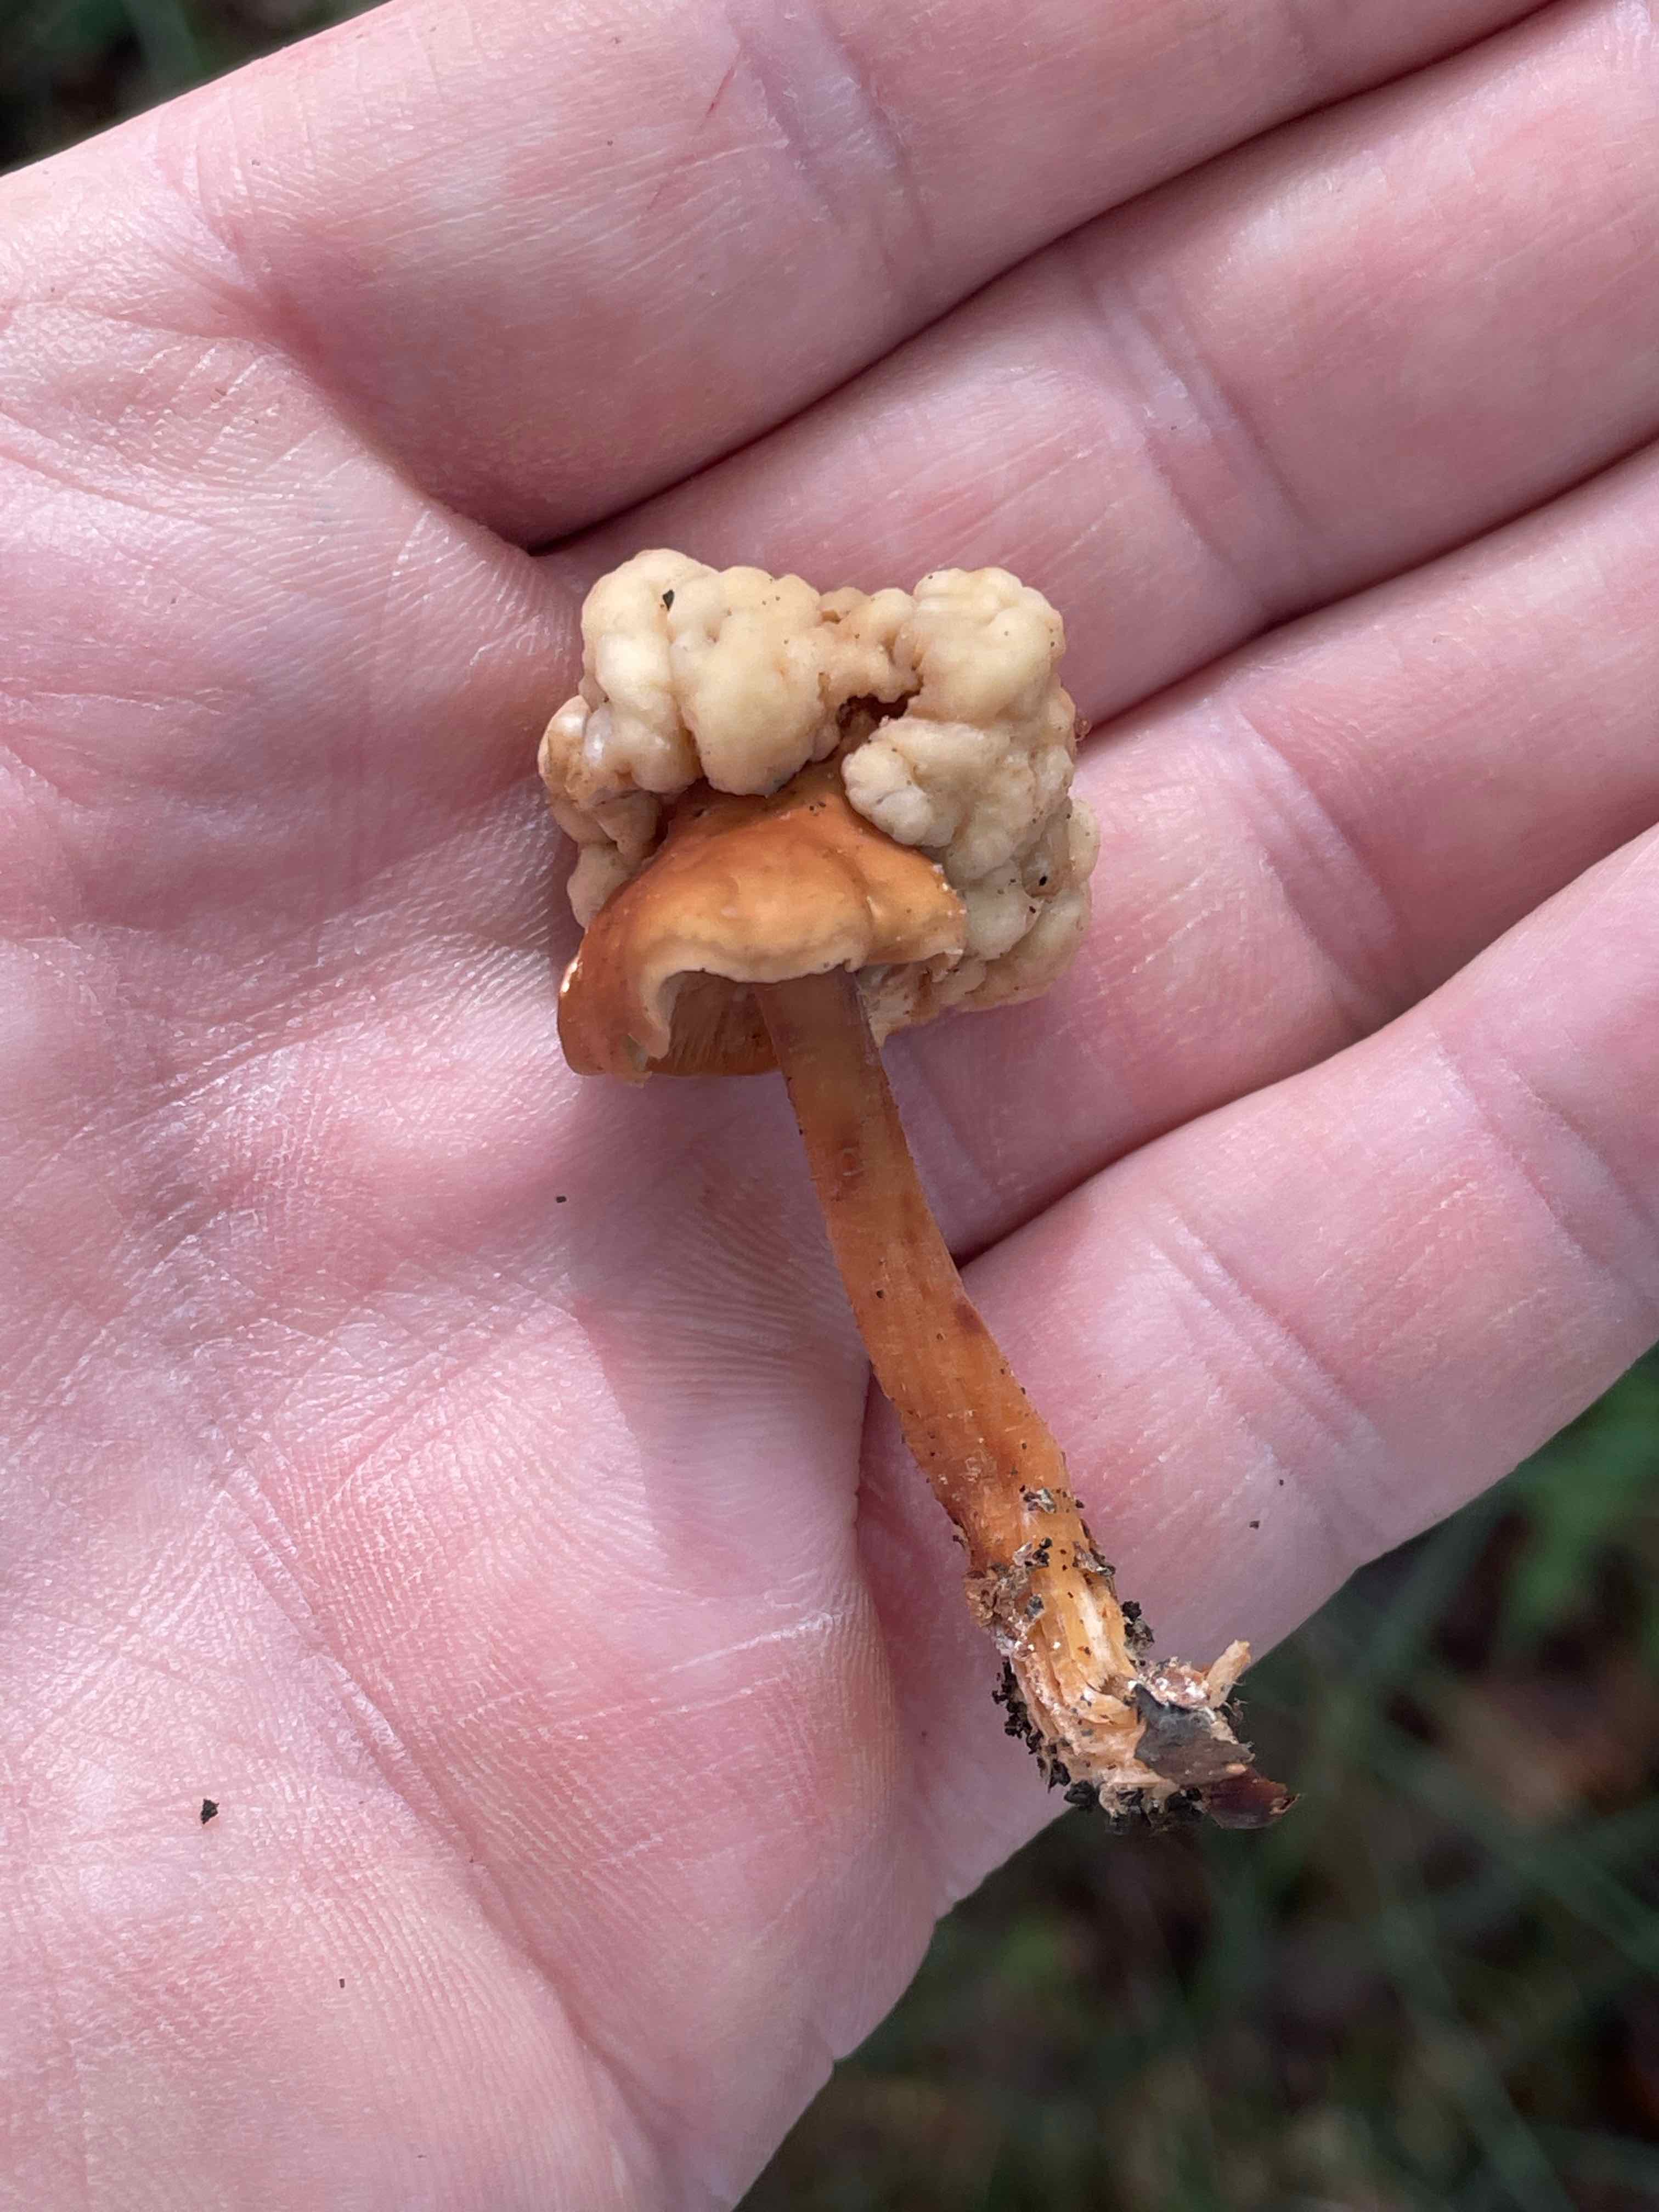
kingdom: Fungi
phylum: Basidiomycota
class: Tremellomycetes
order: Filobasidiales
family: Filobasidiaceae
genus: Syzygospora
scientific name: Syzygospora tumefaciens
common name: fladhatte-snyltehjerne
